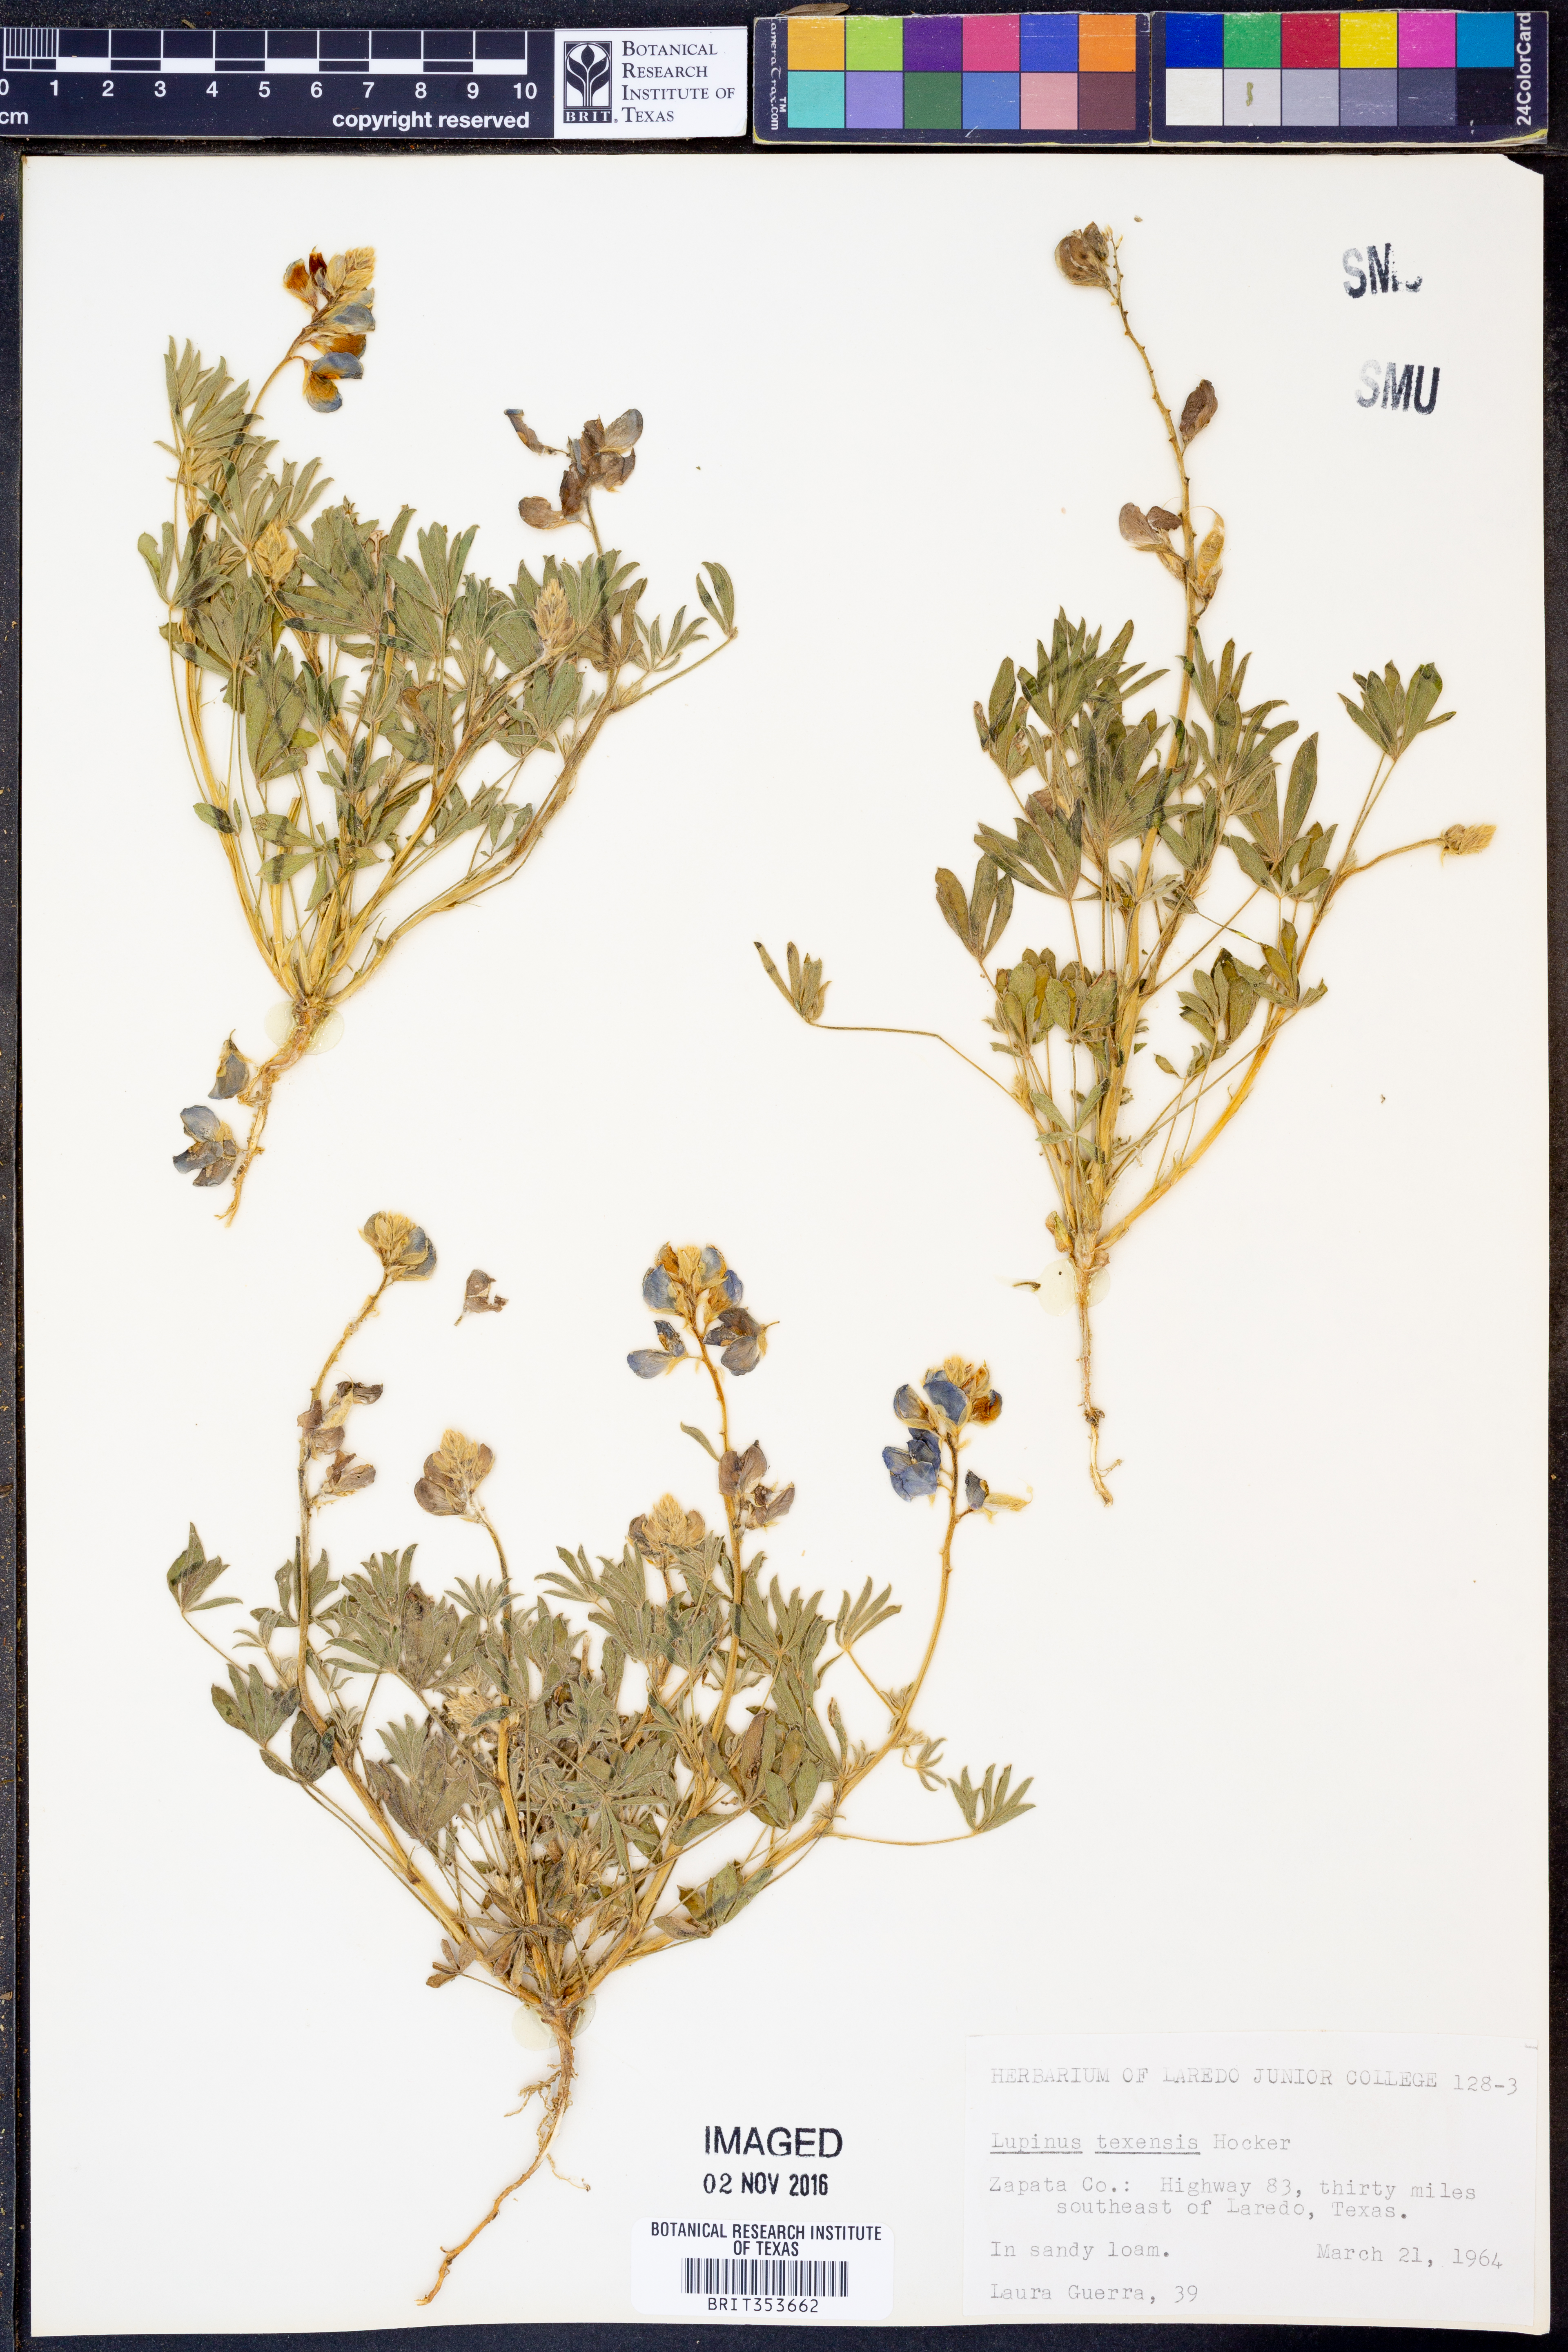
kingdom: Plantae
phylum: Tracheophyta
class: Magnoliopsida
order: Fabales
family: Fabaceae
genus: Lupinus
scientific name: Lupinus texensis
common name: Texas bluebonnet
